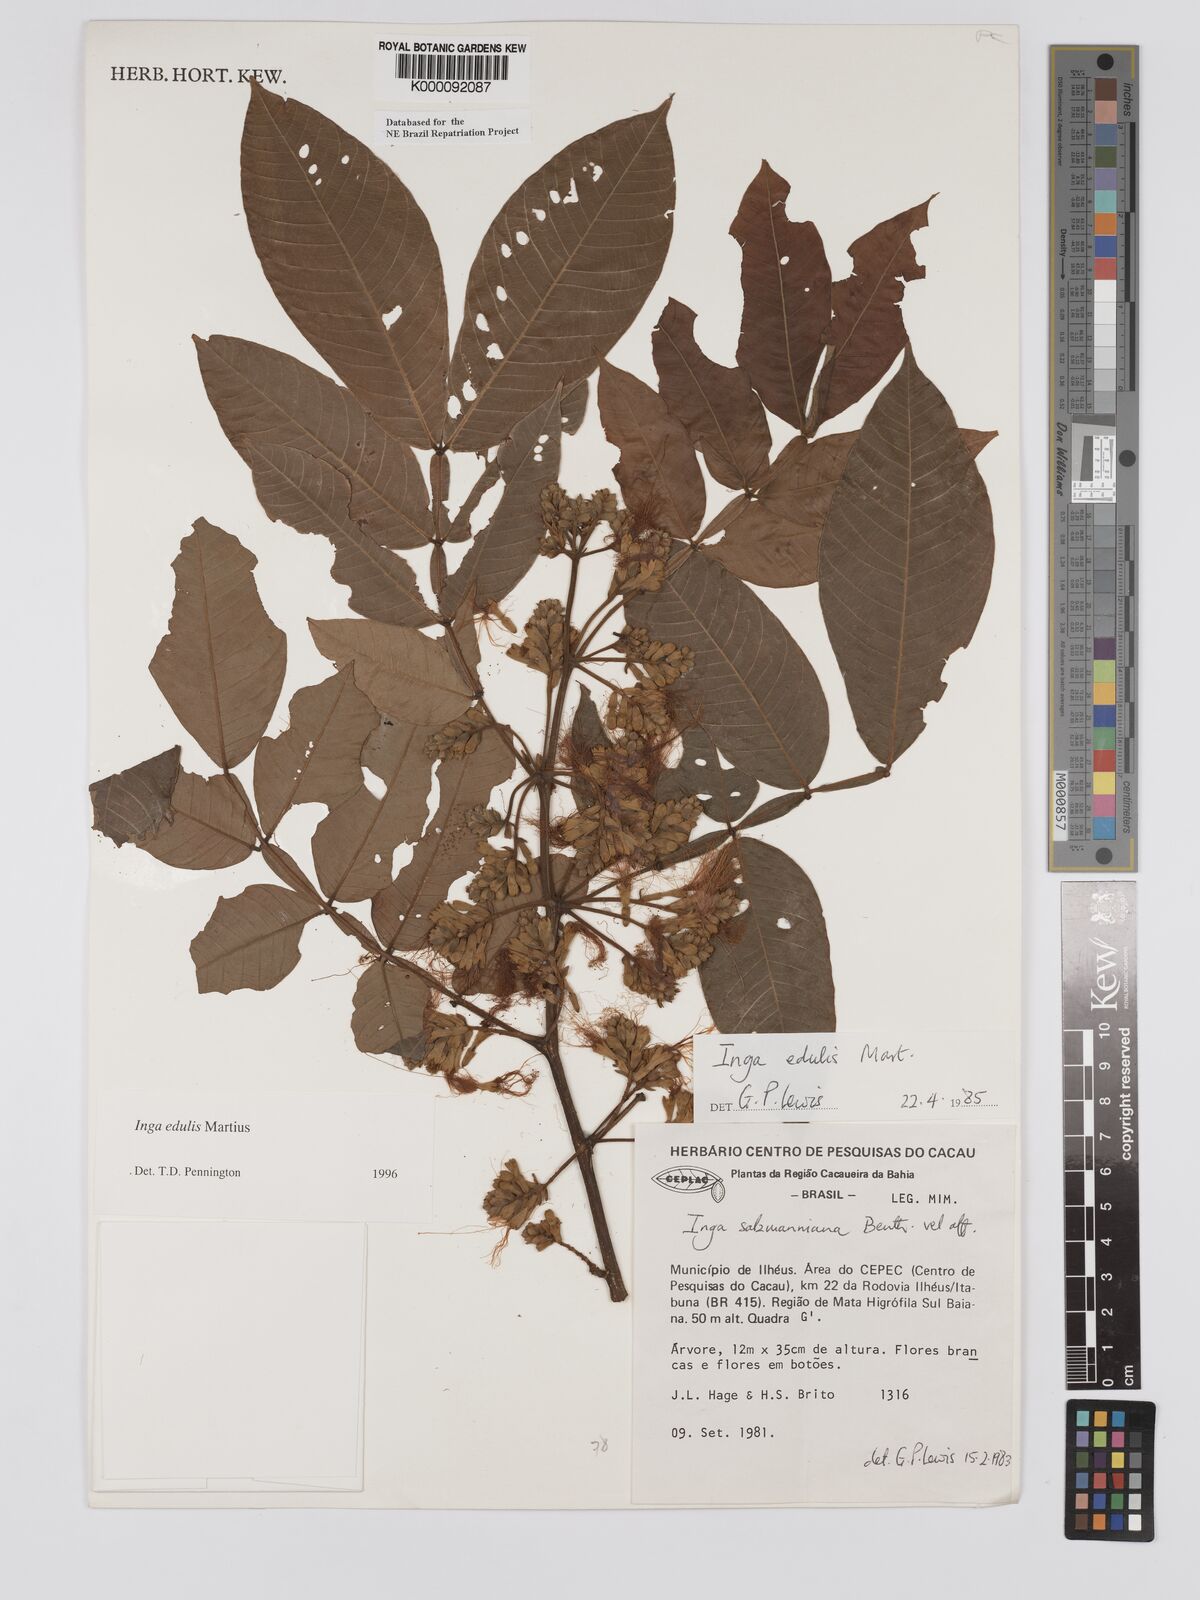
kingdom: Plantae
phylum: Tracheophyta
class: Magnoliopsida
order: Fabales
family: Fabaceae
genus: Inga
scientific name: Inga edulis
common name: Ice cream bean
